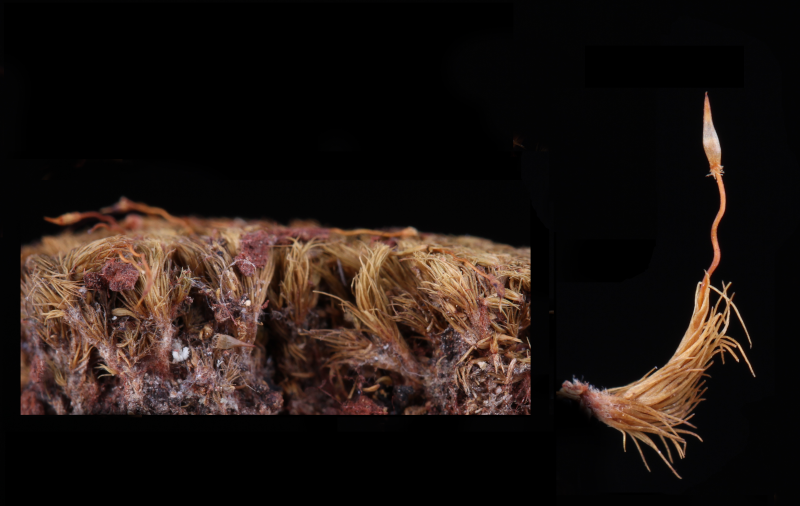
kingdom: Plantae
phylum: Bryophyta
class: Bryopsida
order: Dicranales
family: Leucobryaceae
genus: Campylopus
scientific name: Campylopus laxitextus
